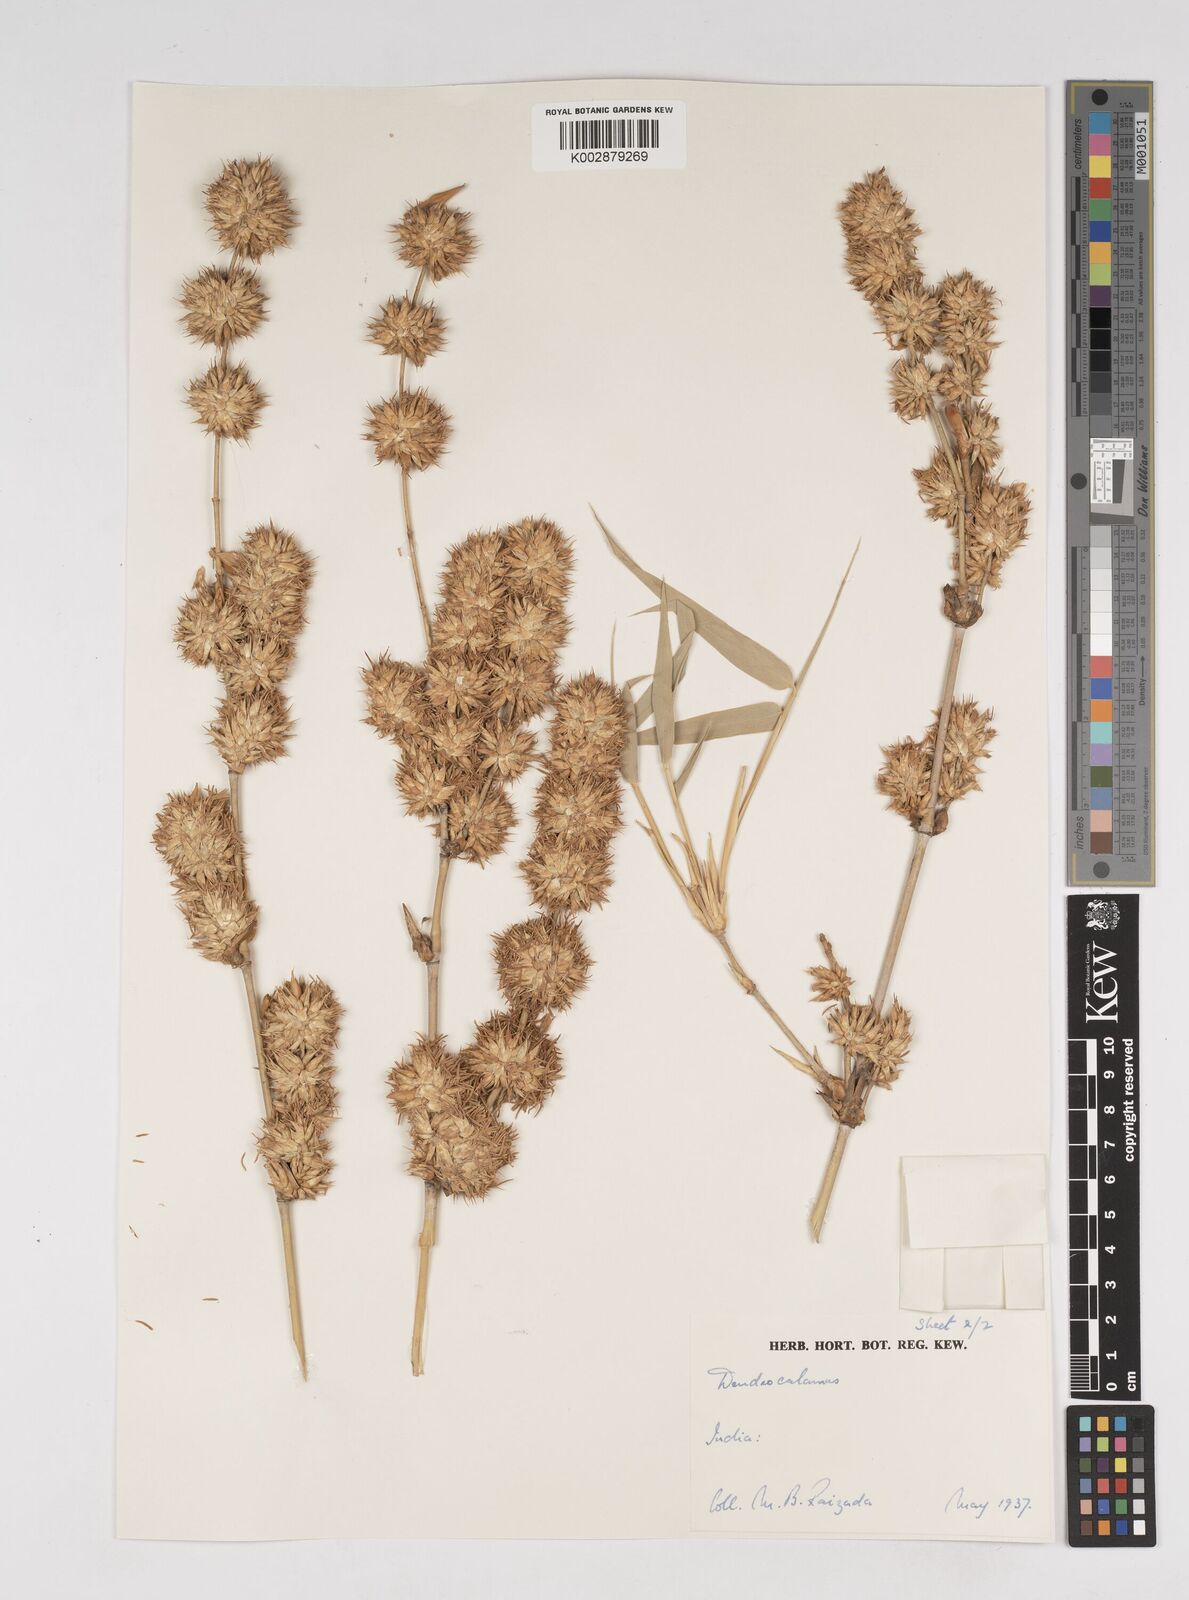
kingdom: Plantae
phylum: Tracheophyta
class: Liliopsida
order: Poales
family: Poaceae
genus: Dendrocalamus
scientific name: Dendrocalamus
